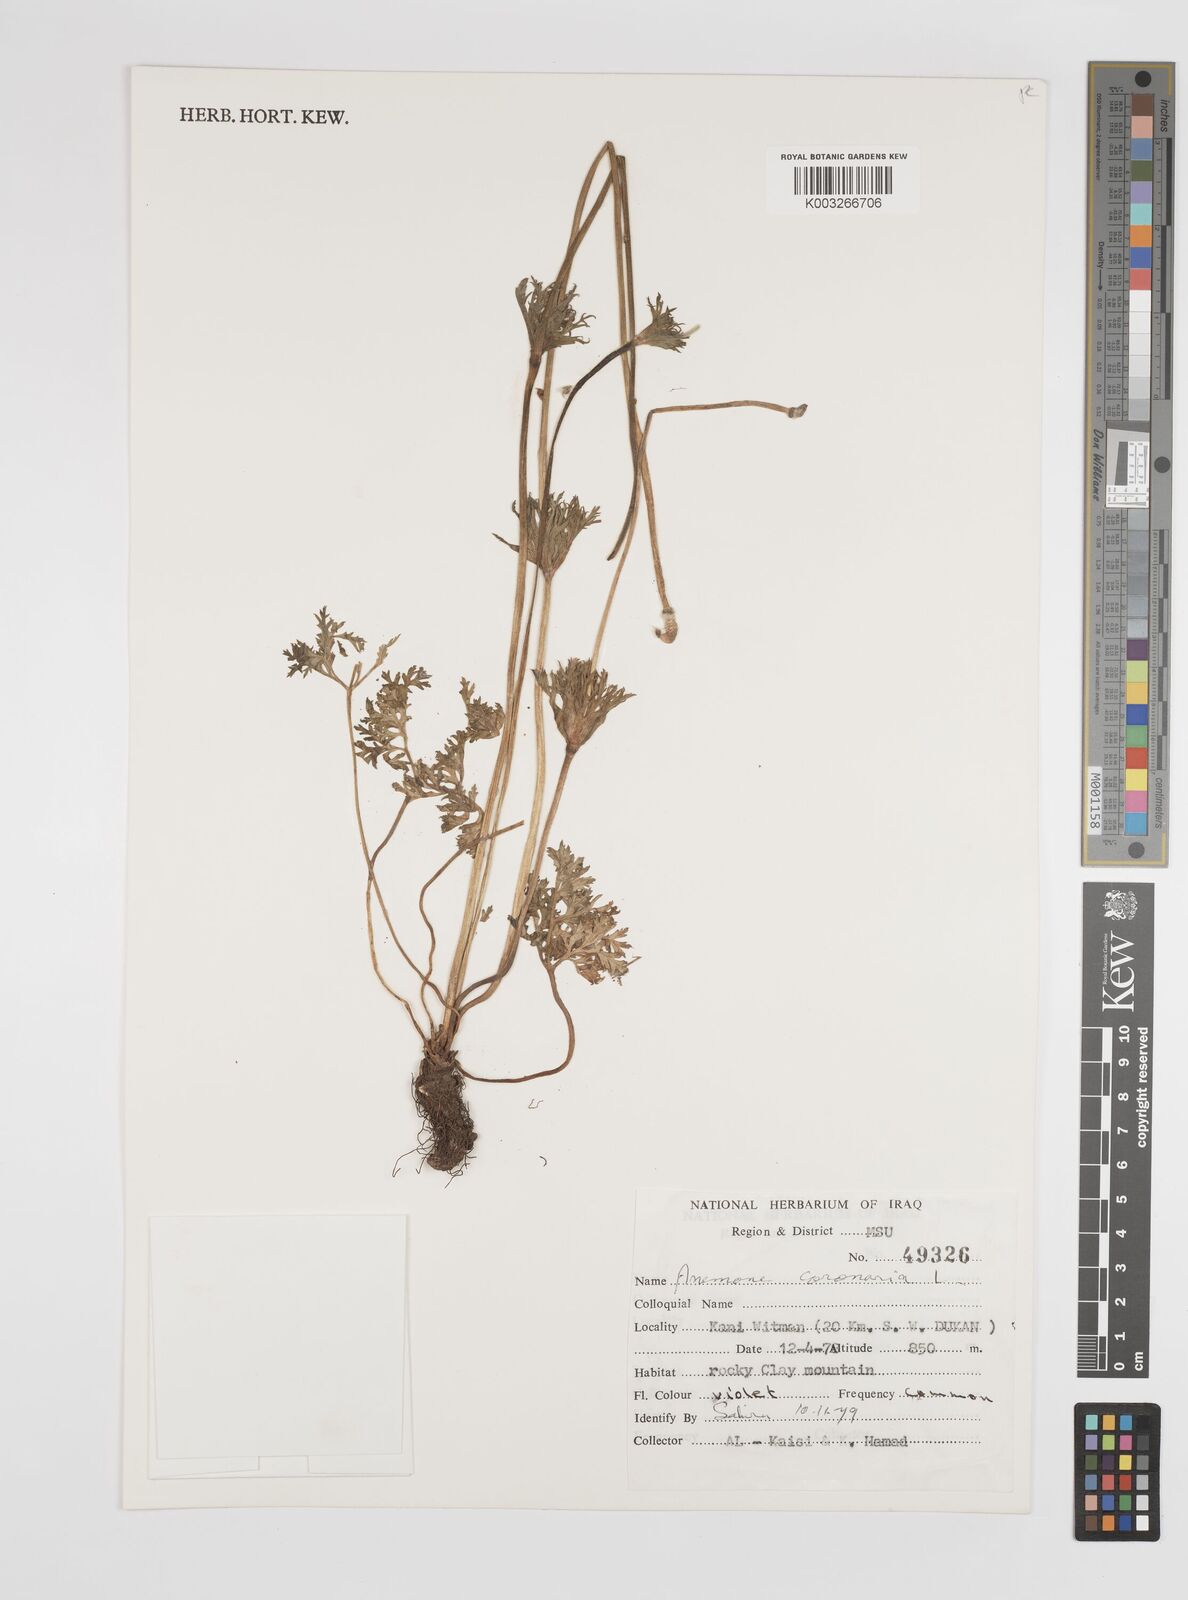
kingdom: Plantae
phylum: Tracheophyta
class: Magnoliopsida
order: Ranunculales
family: Ranunculaceae
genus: Anemone
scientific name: Anemone coronaria
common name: Poppy anemone
